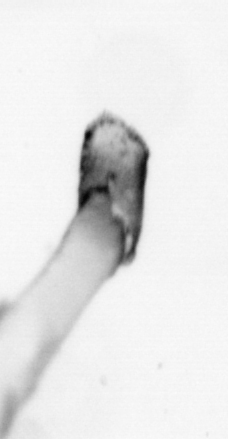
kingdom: Animalia
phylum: Chaetognatha
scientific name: Chaetognatha
